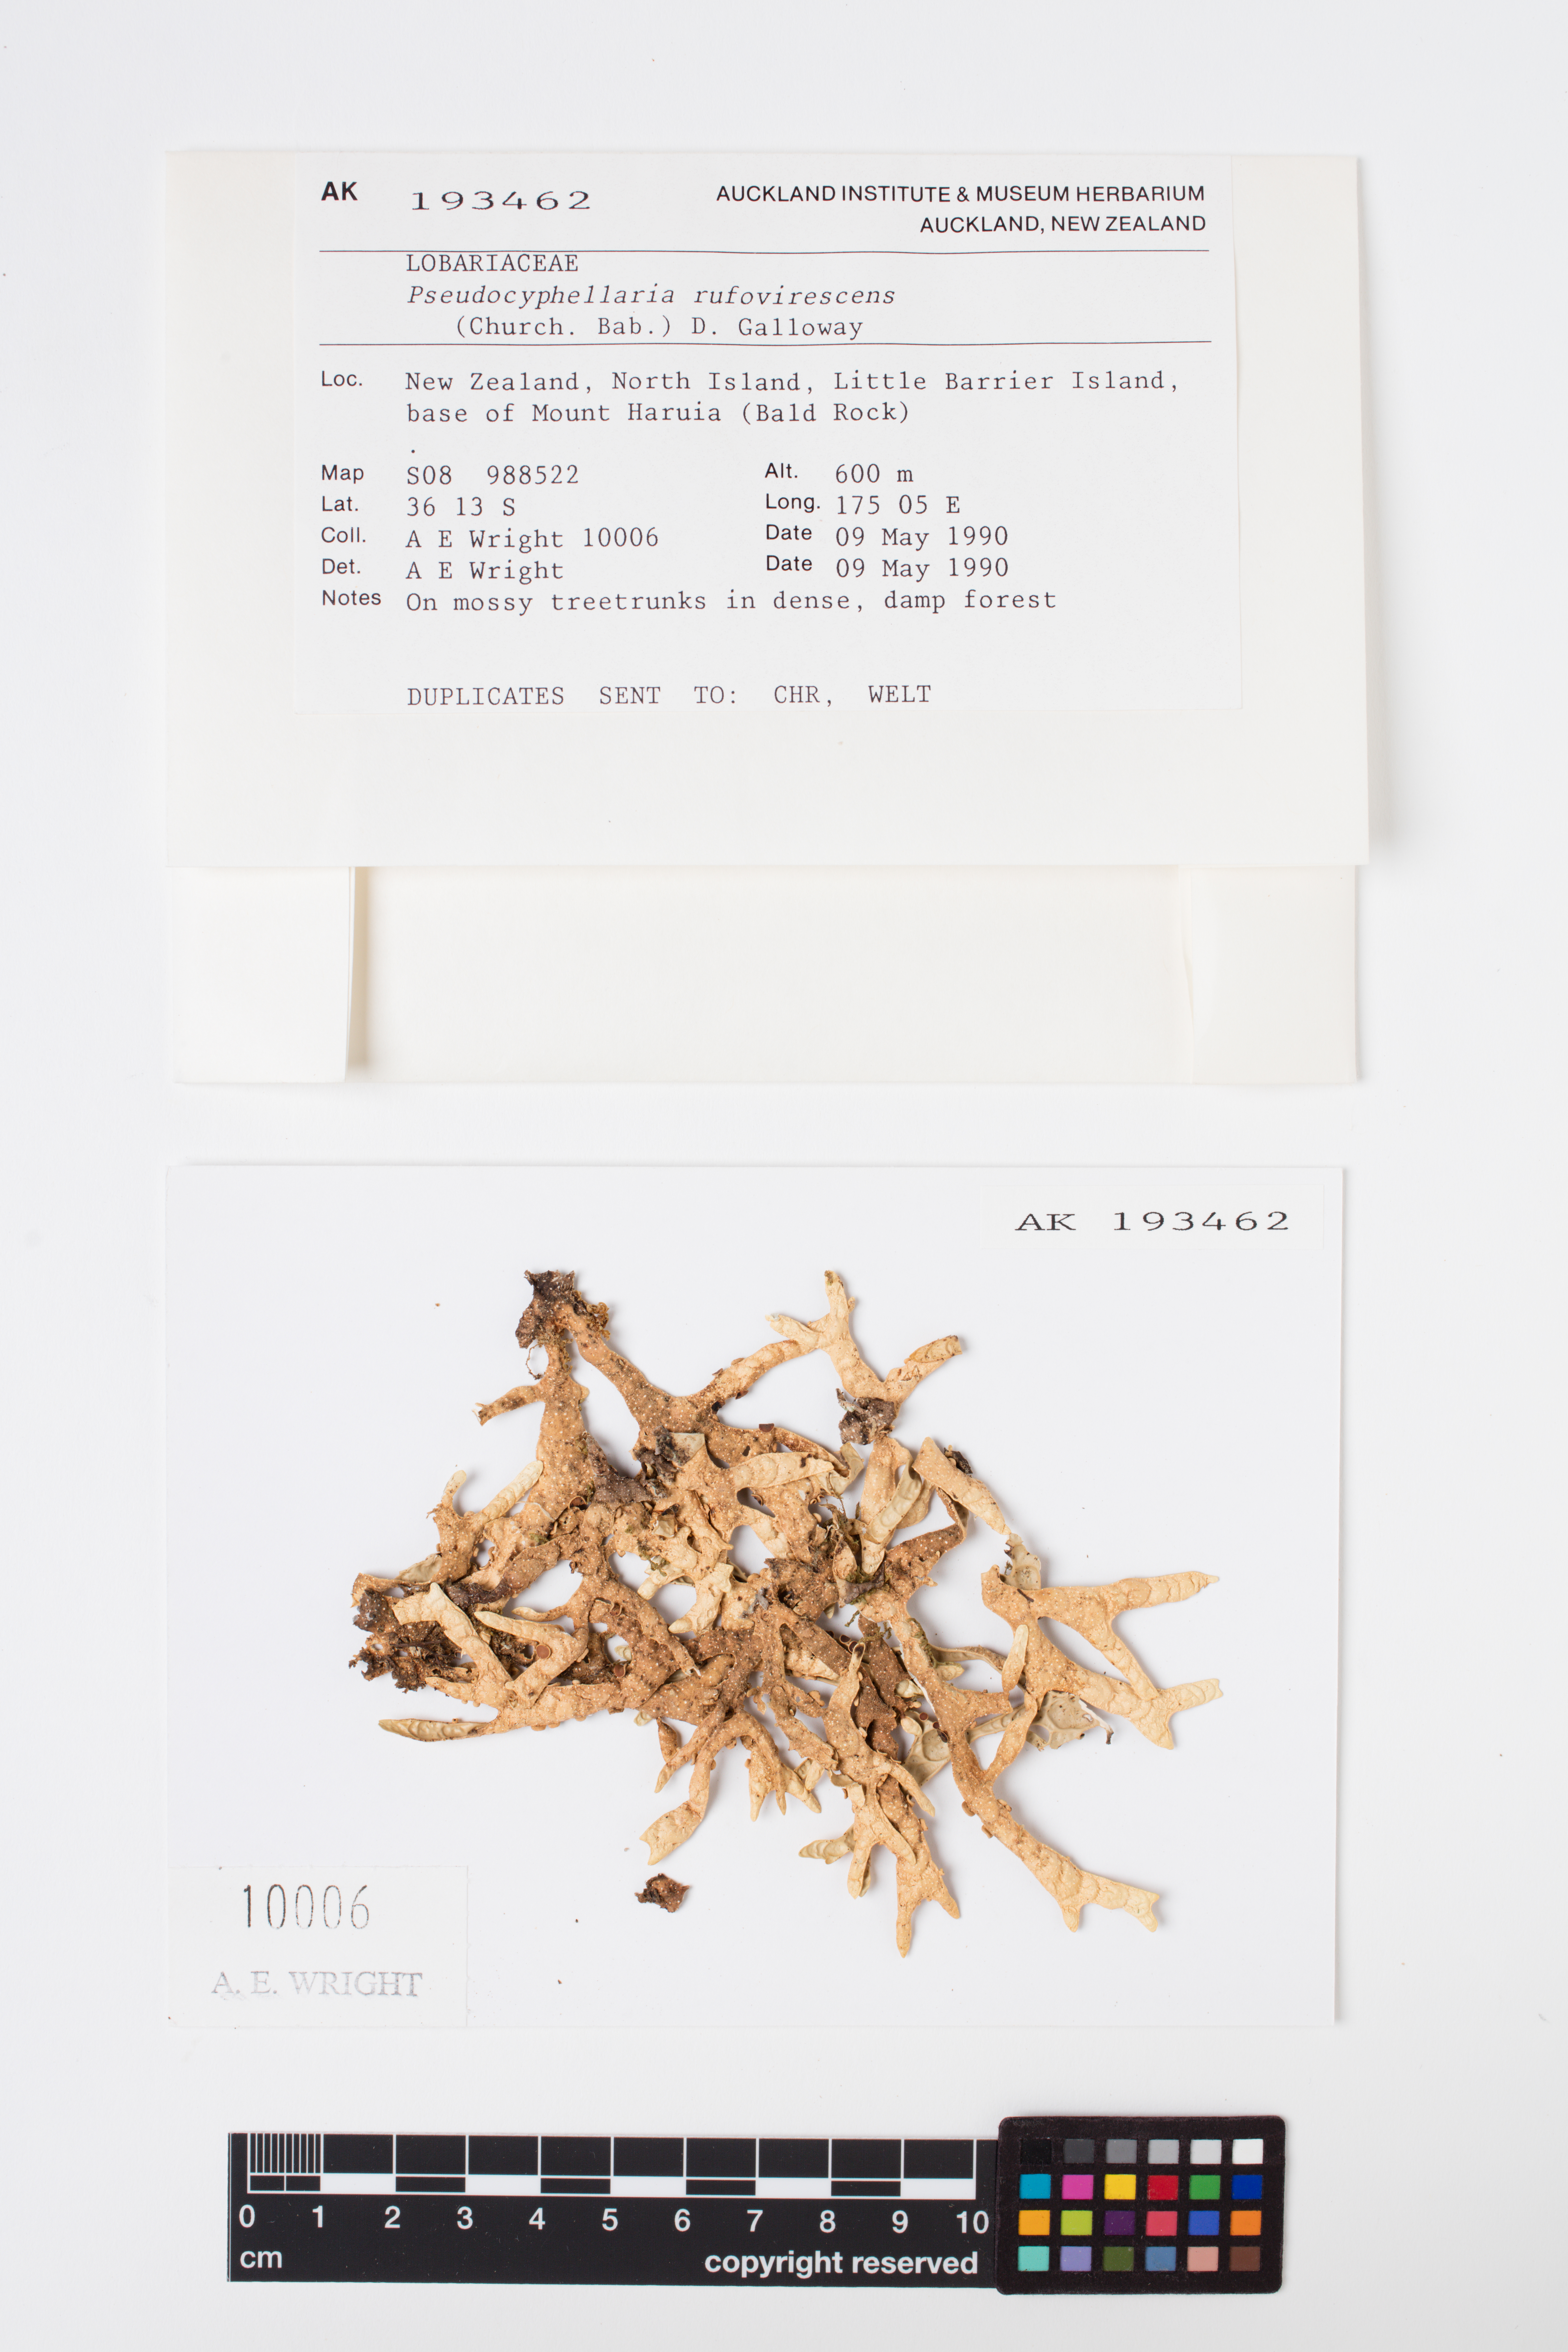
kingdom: Fungi
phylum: Ascomycota
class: Lecanoromycetes
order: Peltigerales
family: Lobariaceae
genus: Pseudocyphellaria
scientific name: Pseudocyphellaria rufovirescens
